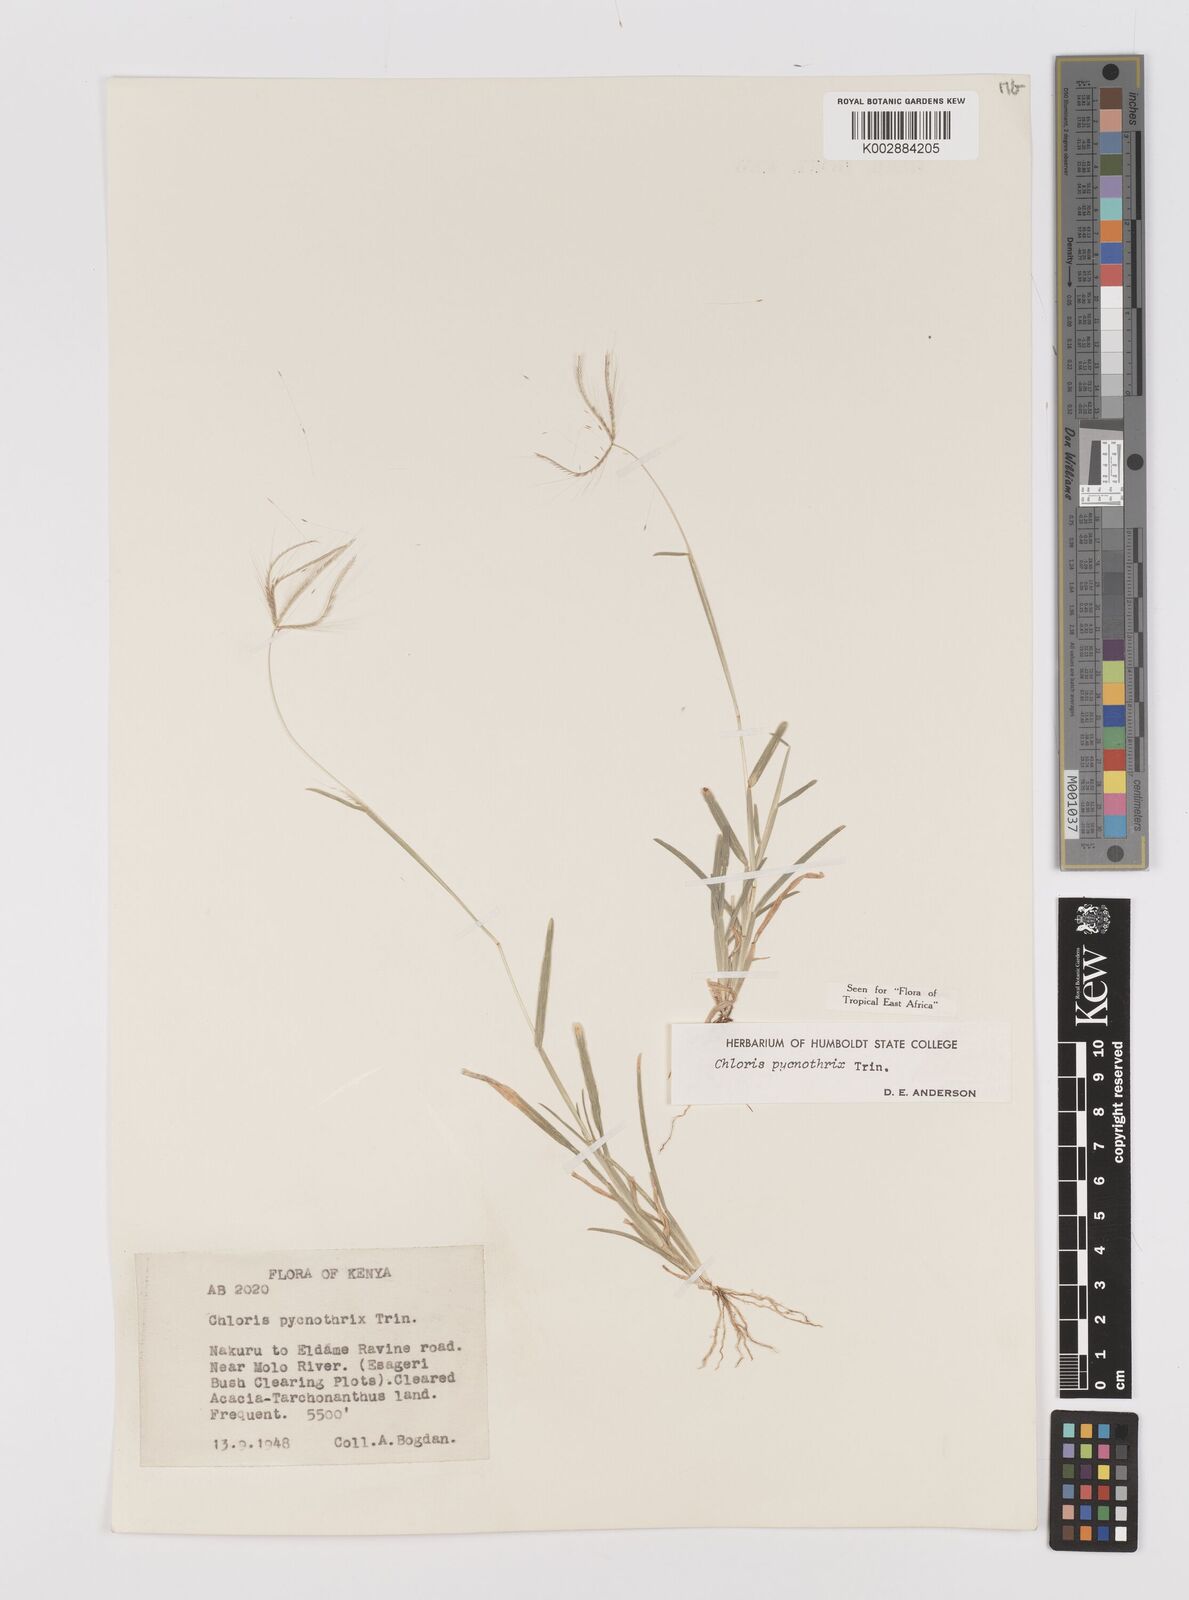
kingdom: Plantae
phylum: Tracheophyta
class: Liliopsida
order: Poales
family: Poaceae
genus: Chloris
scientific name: Chloris pycnothrix
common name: Spiderweb chloris
